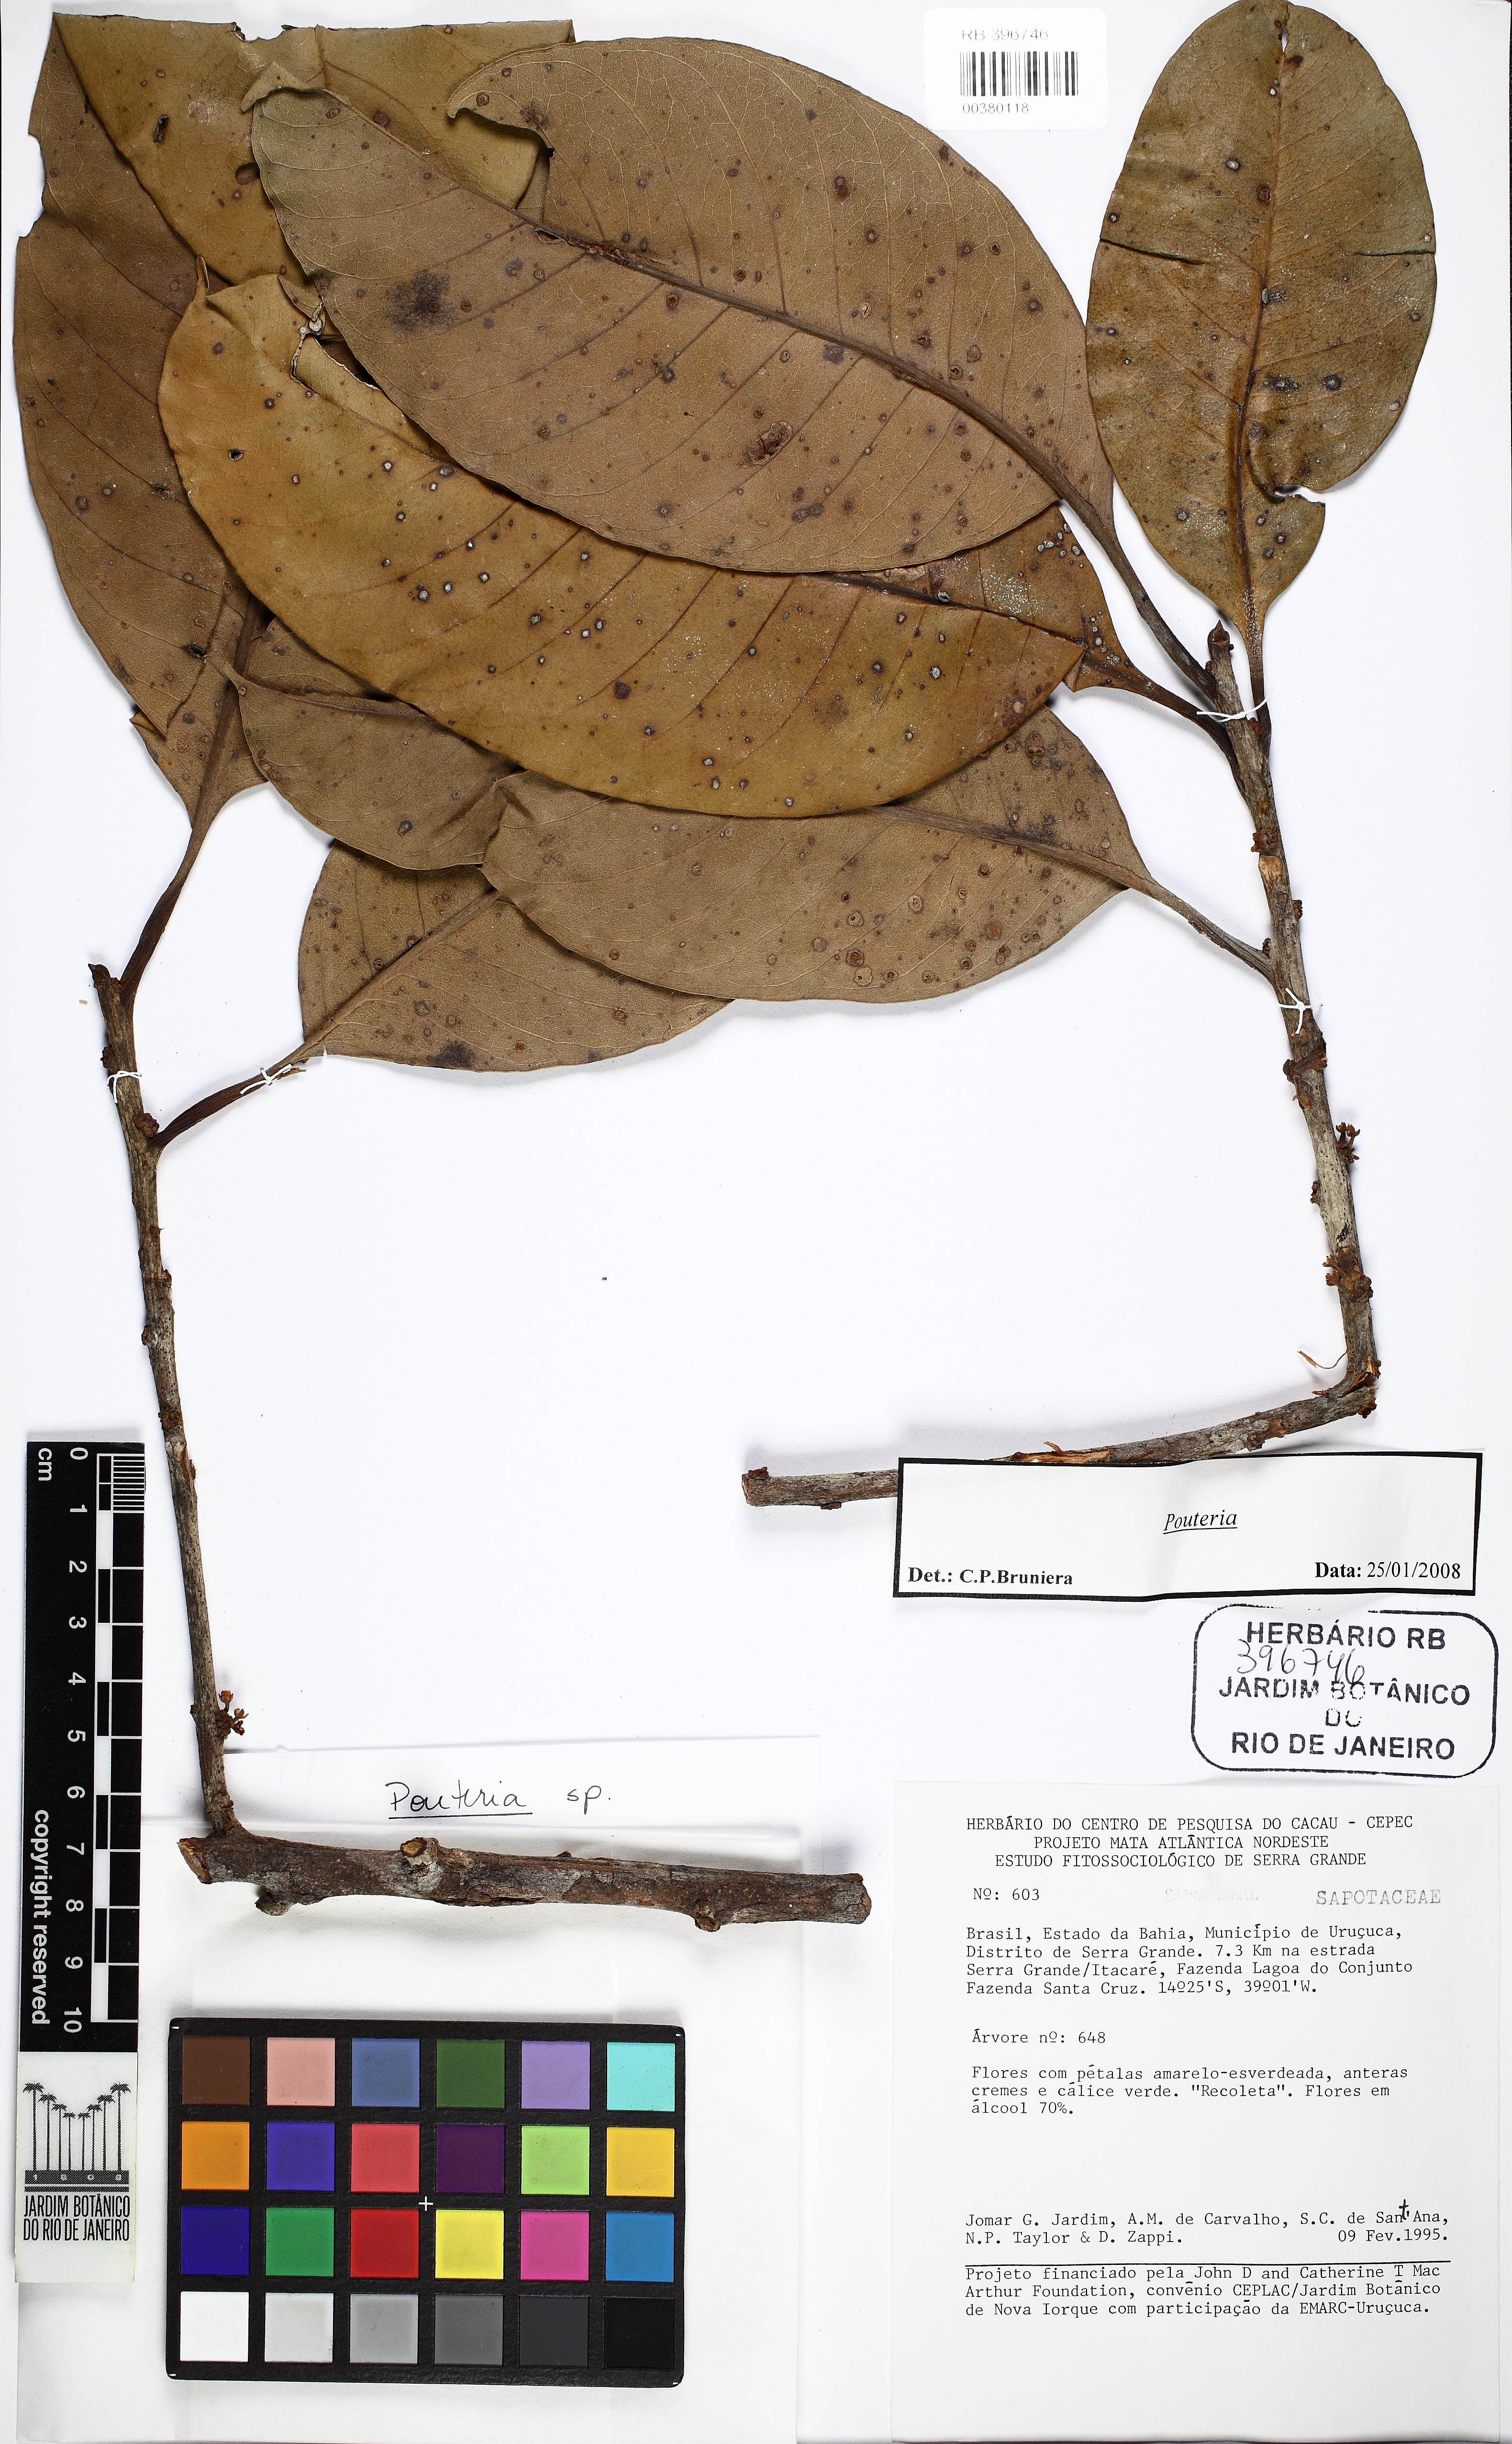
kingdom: Plantae
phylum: Tracheophyta
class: Magnoliopsida
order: Ericales
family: Sapotaceae
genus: Sarcaulus
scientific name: Sarcaulus
